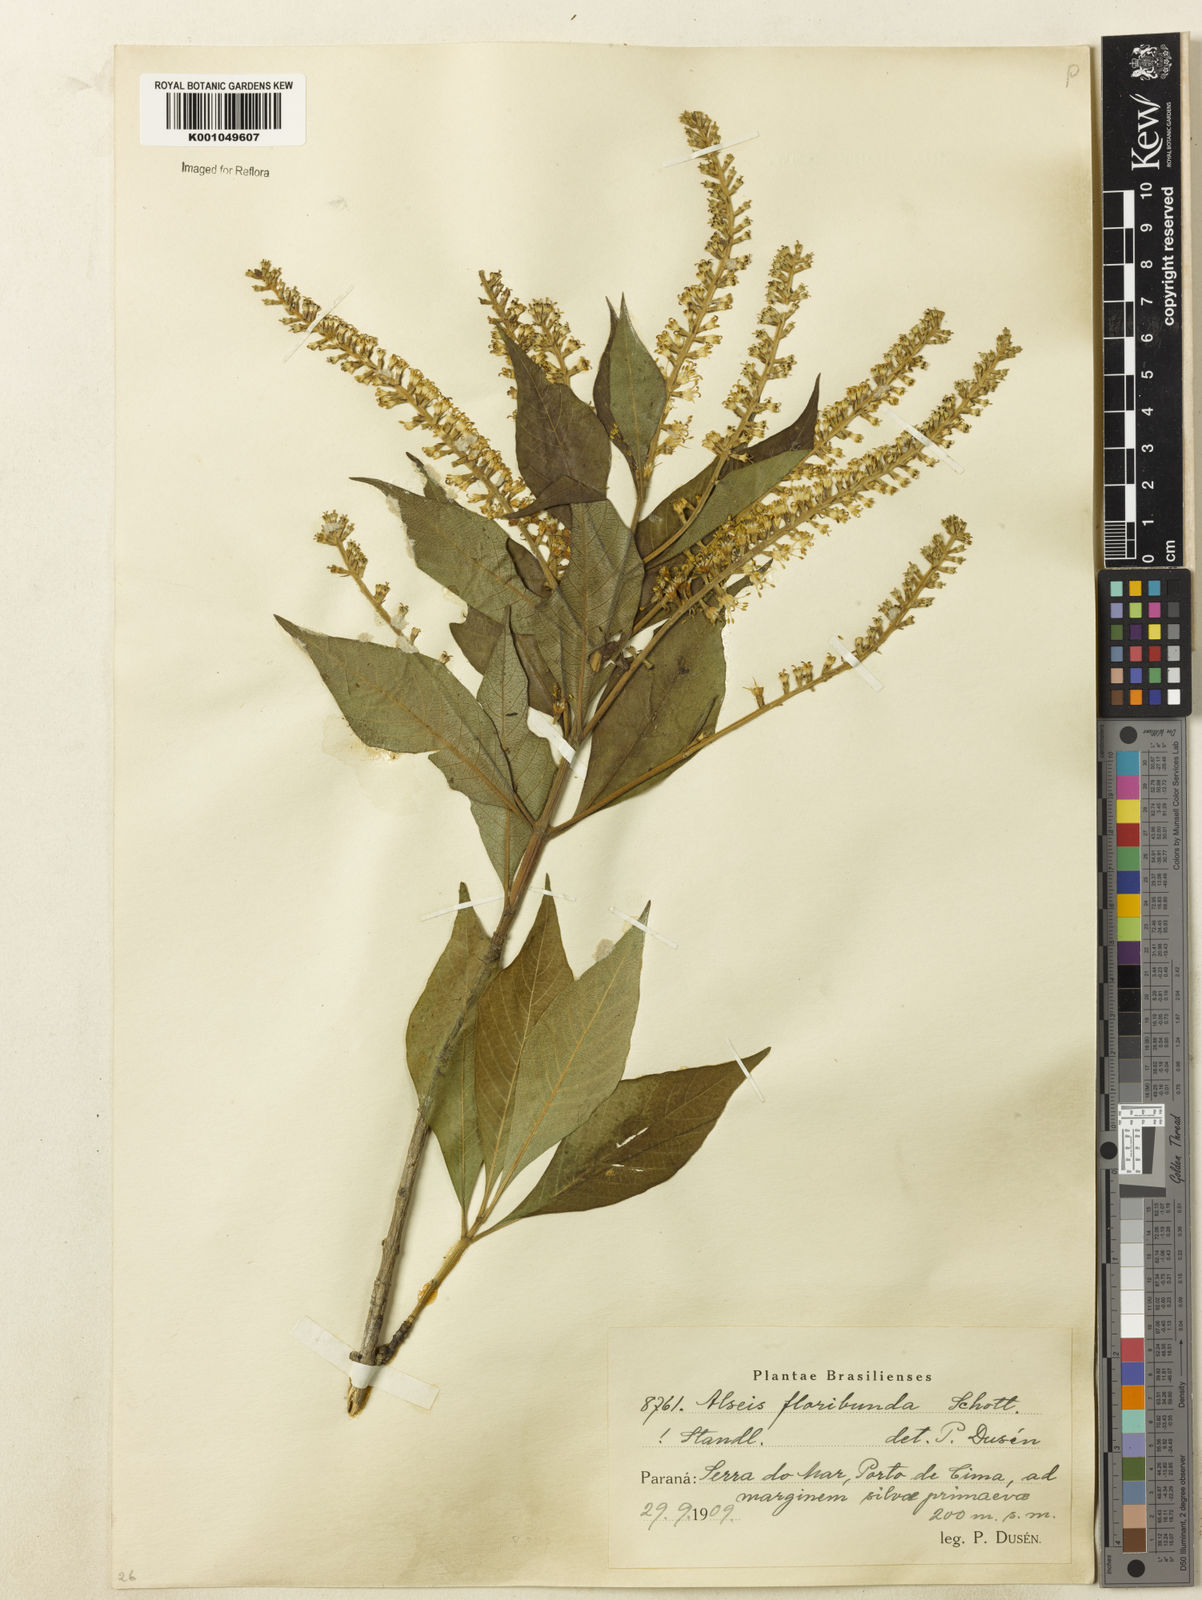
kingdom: Plantae
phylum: Tracheophyta
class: Magnoliopsida
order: Gentianales
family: Rubiaceae
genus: Alseis
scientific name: Alseis floribunda
